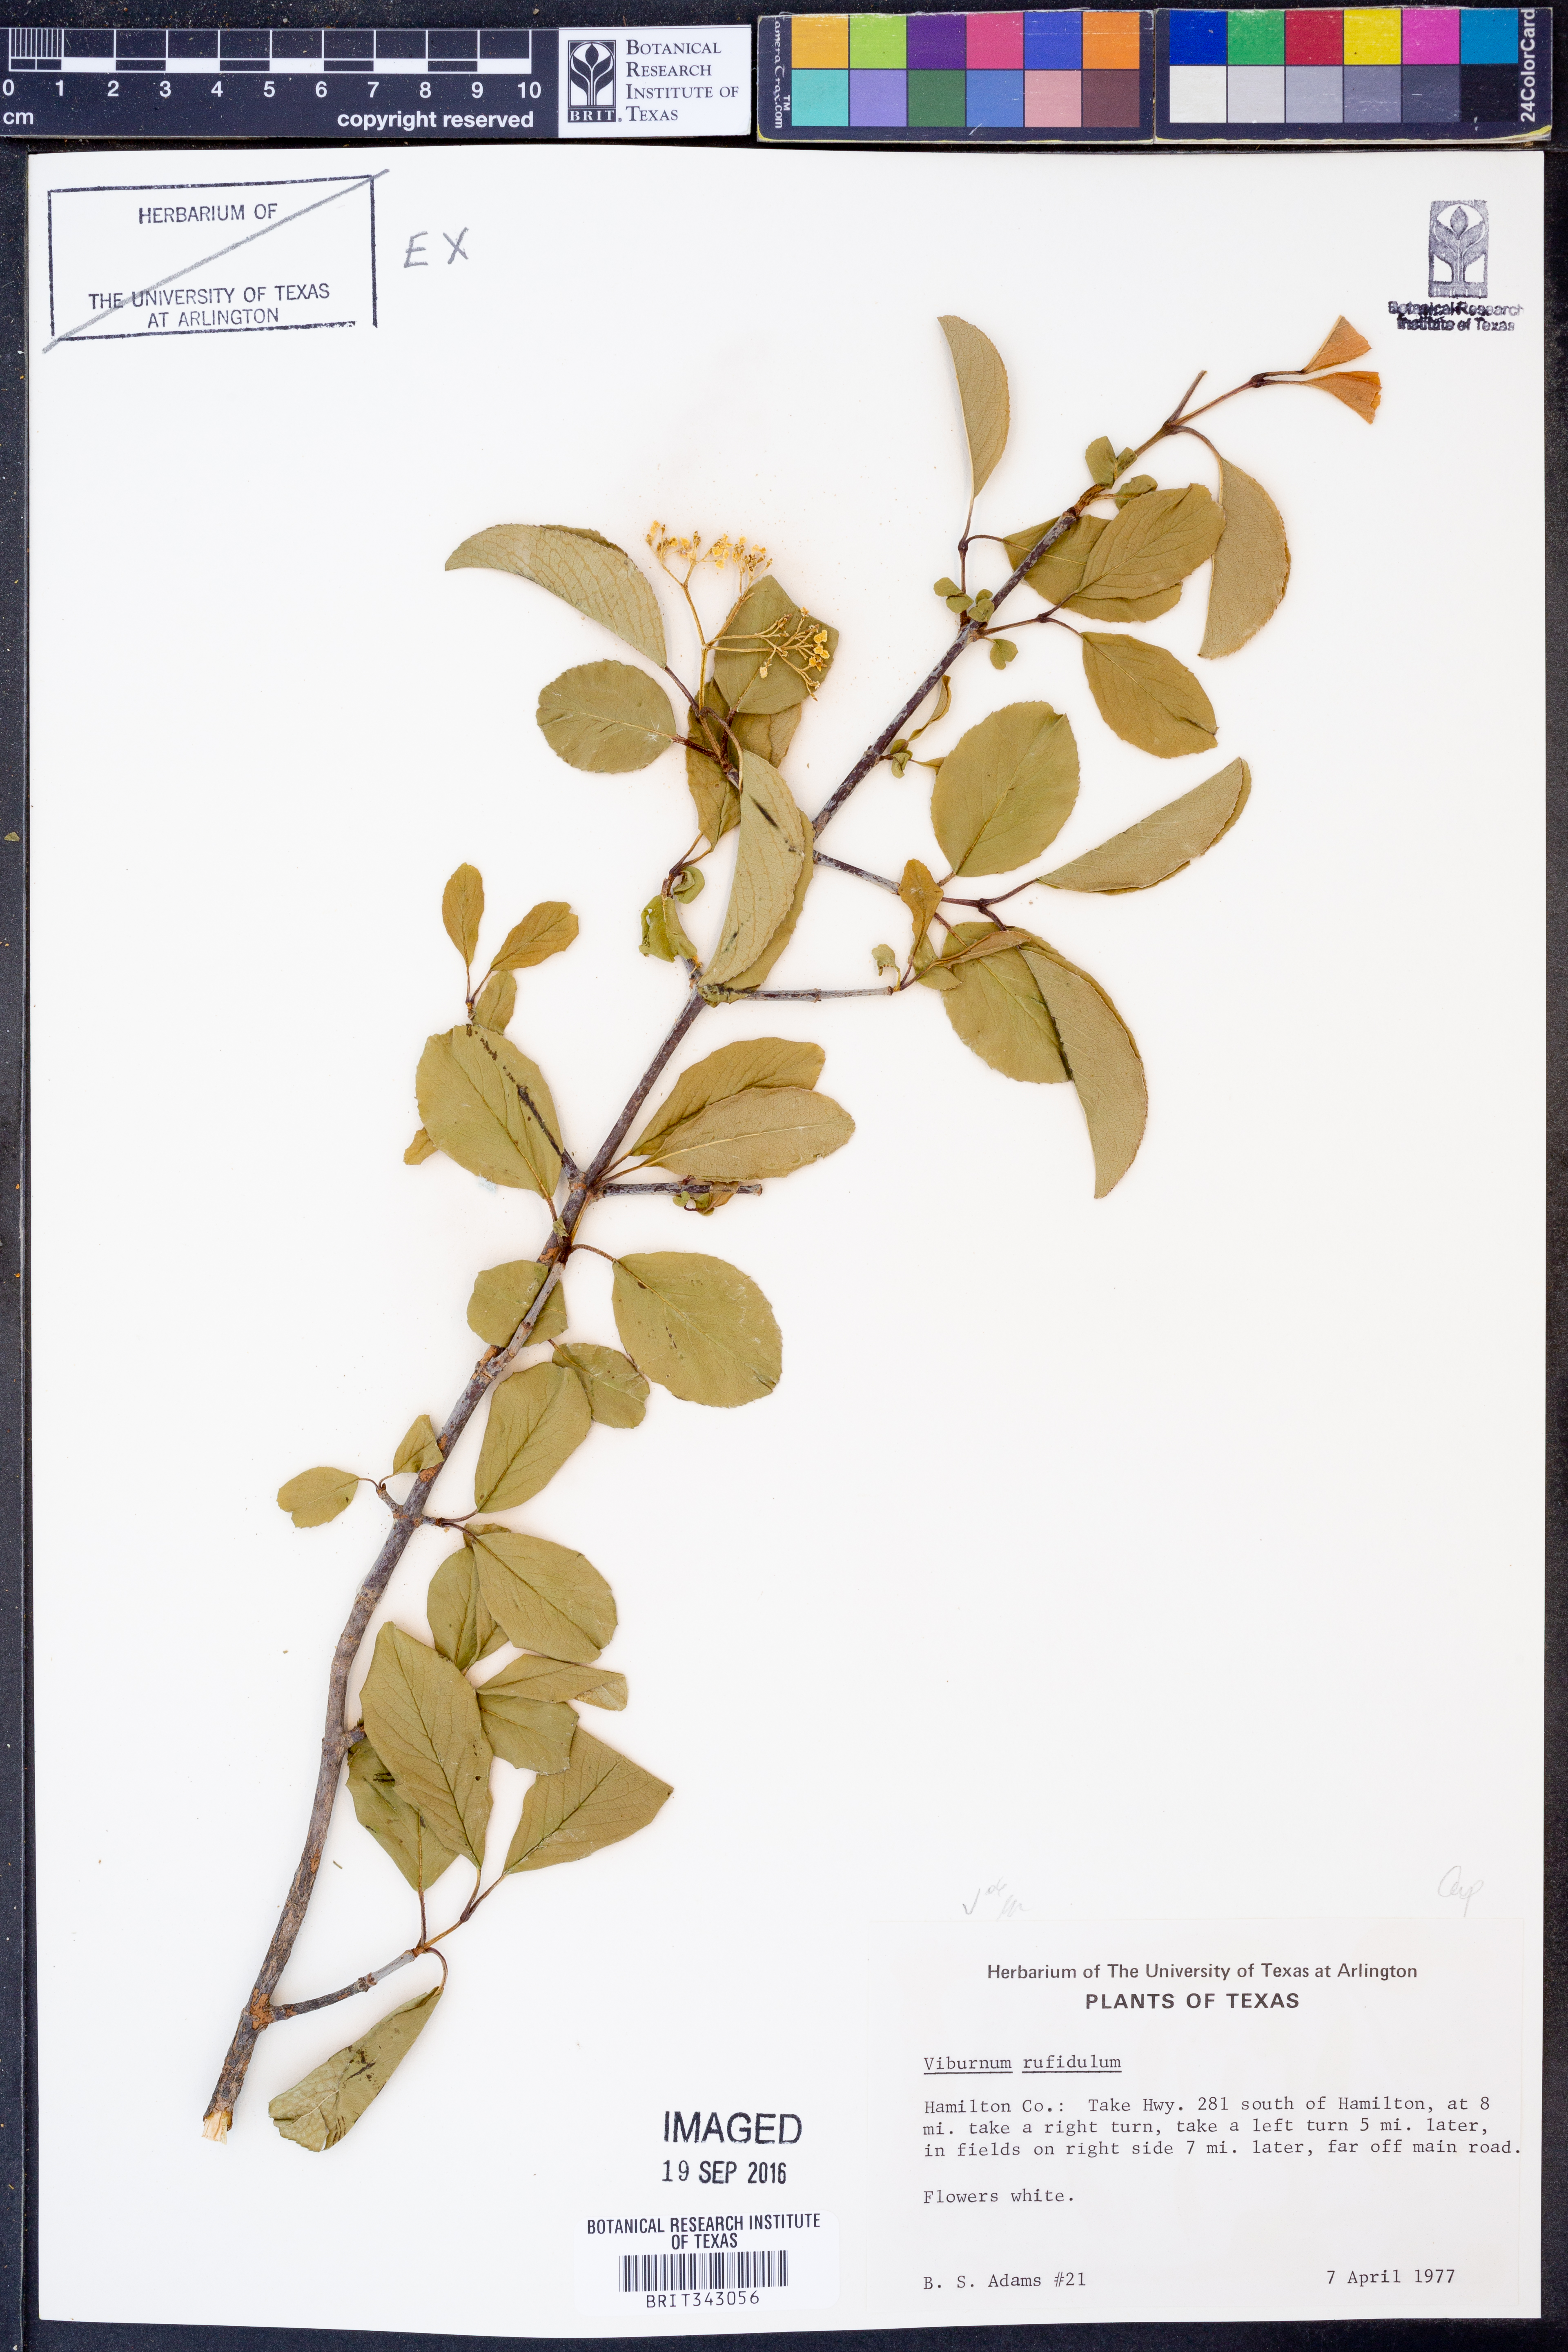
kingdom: Plantae
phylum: Tracheophyta
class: Magnoliopsida
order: Dipsacales
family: Viburnaceae
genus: Viburnum
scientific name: Viburnum rufidulum
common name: Blue haw
